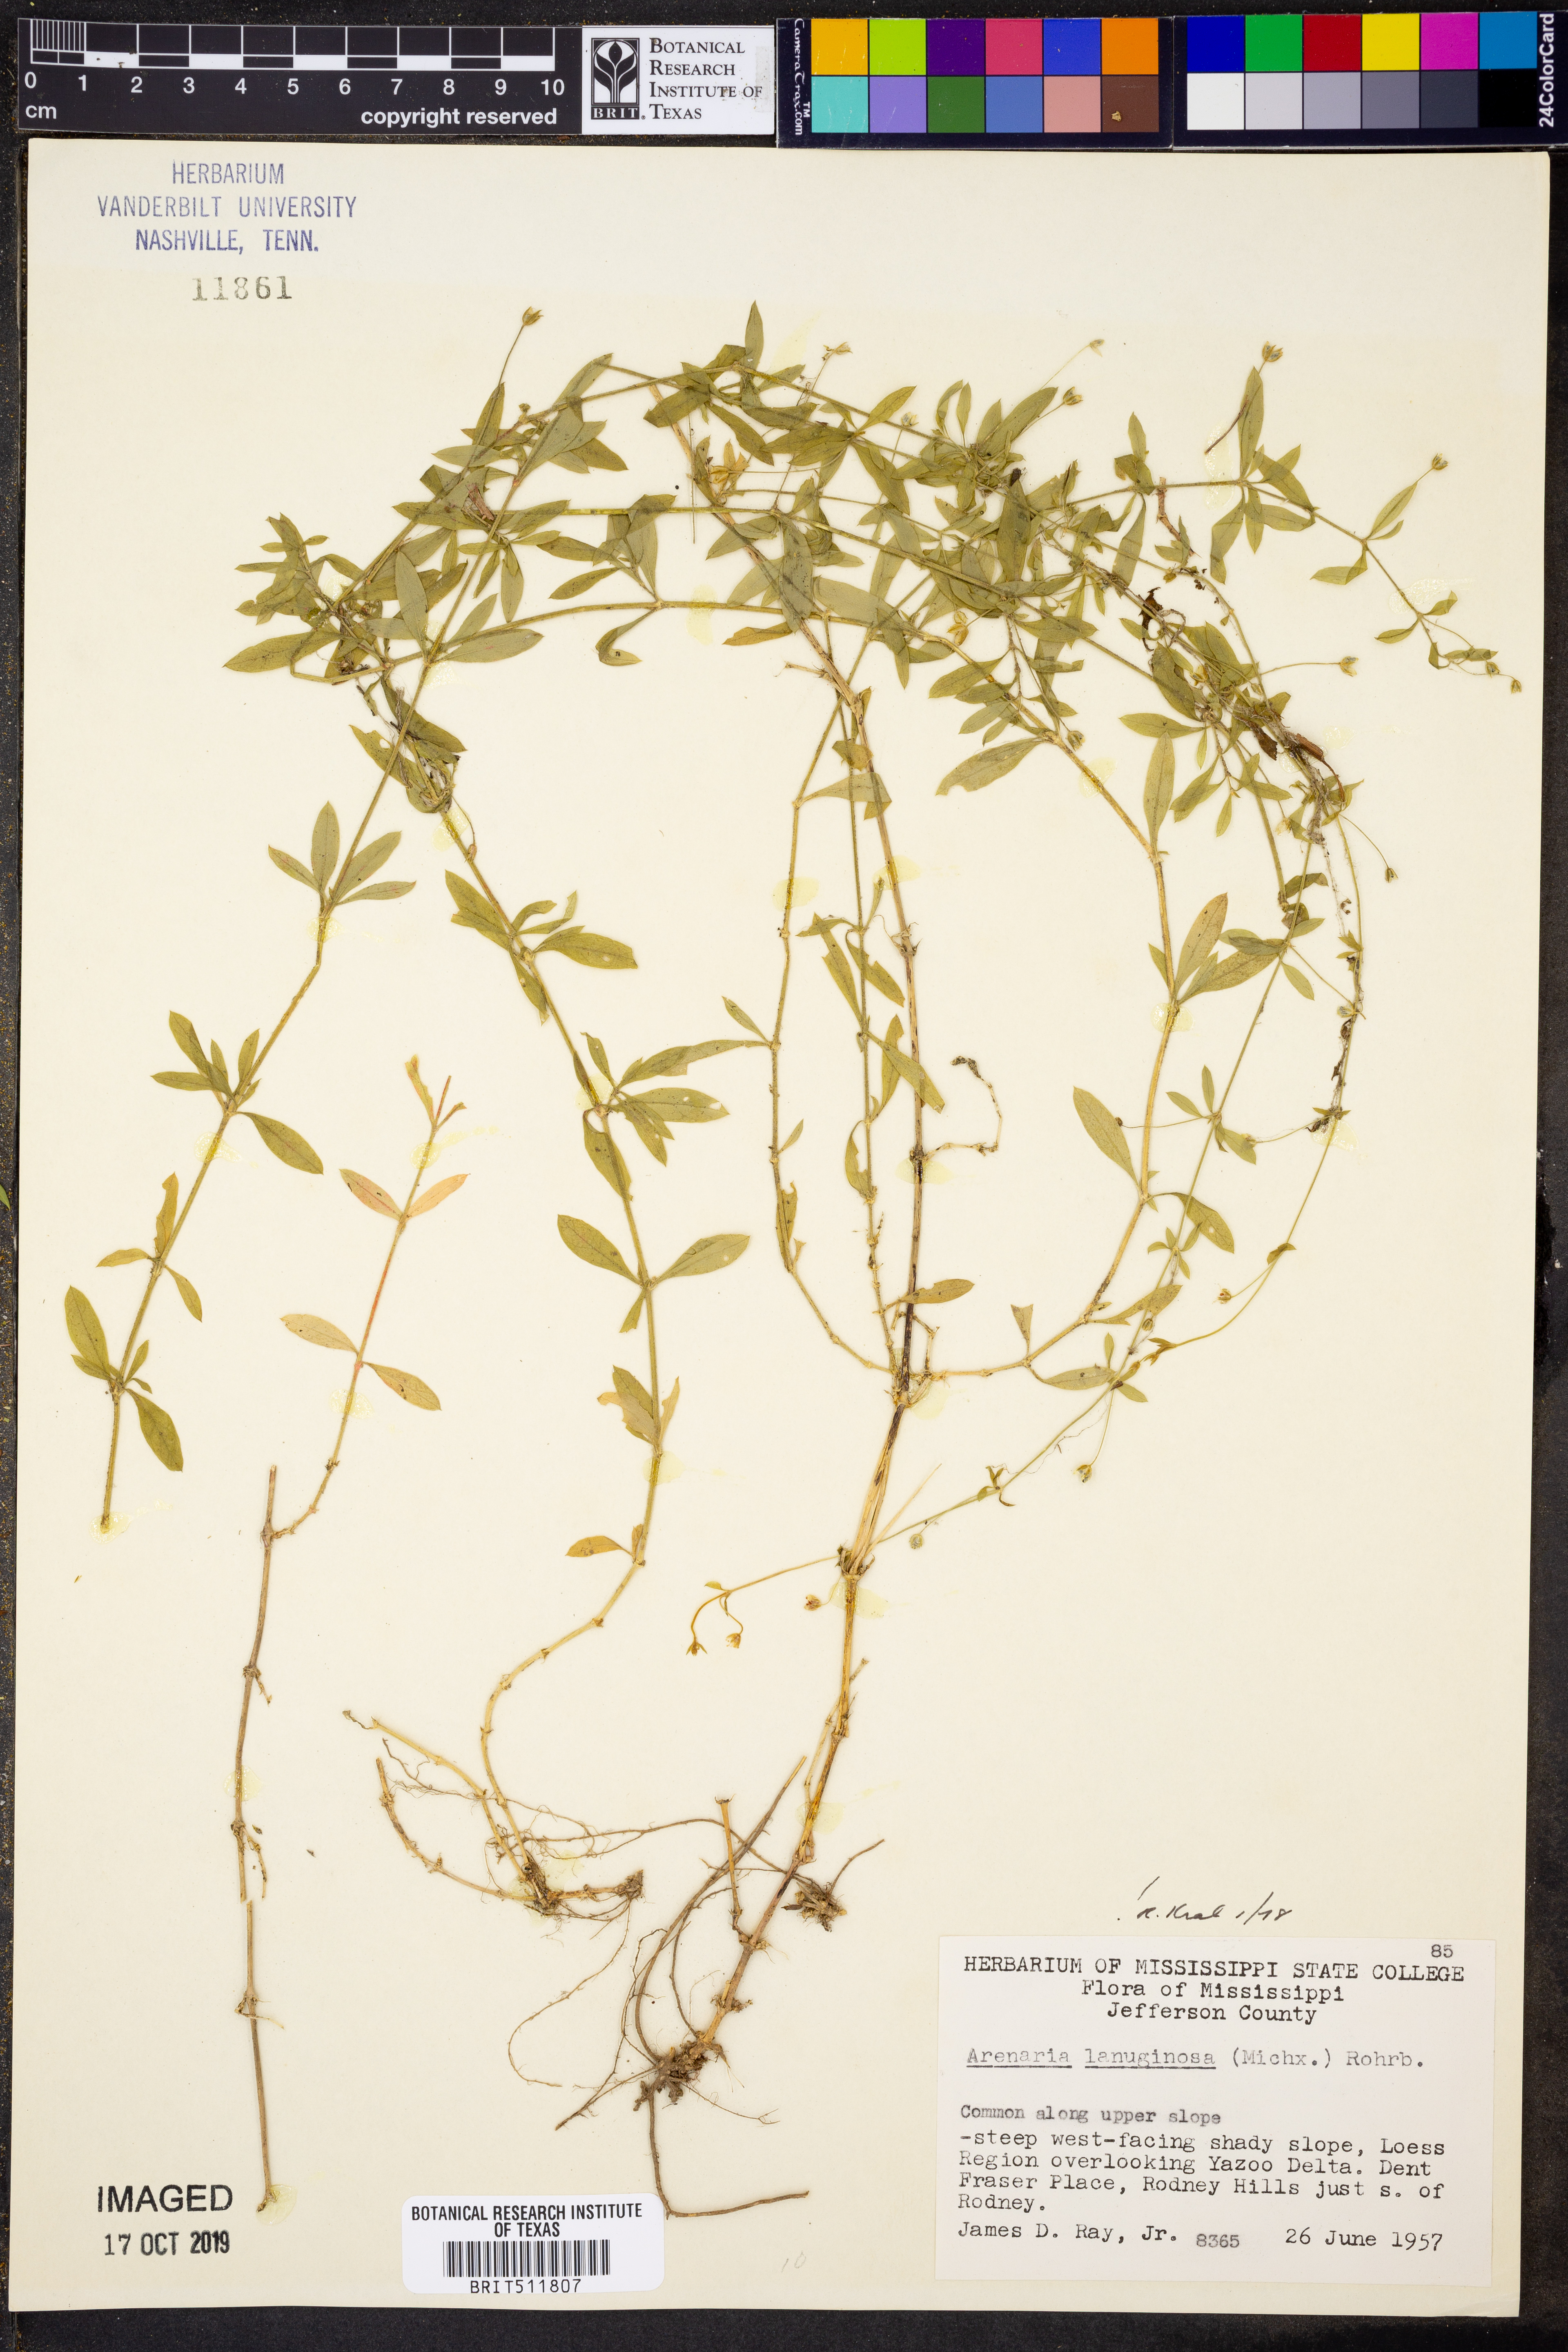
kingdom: Plantae
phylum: Tracheophyta
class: Magnoliopsida
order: Caryophyllales
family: Caryophyllaceae
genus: Arenaria
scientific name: Arenaria lanuginosa
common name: Spread sandwort
